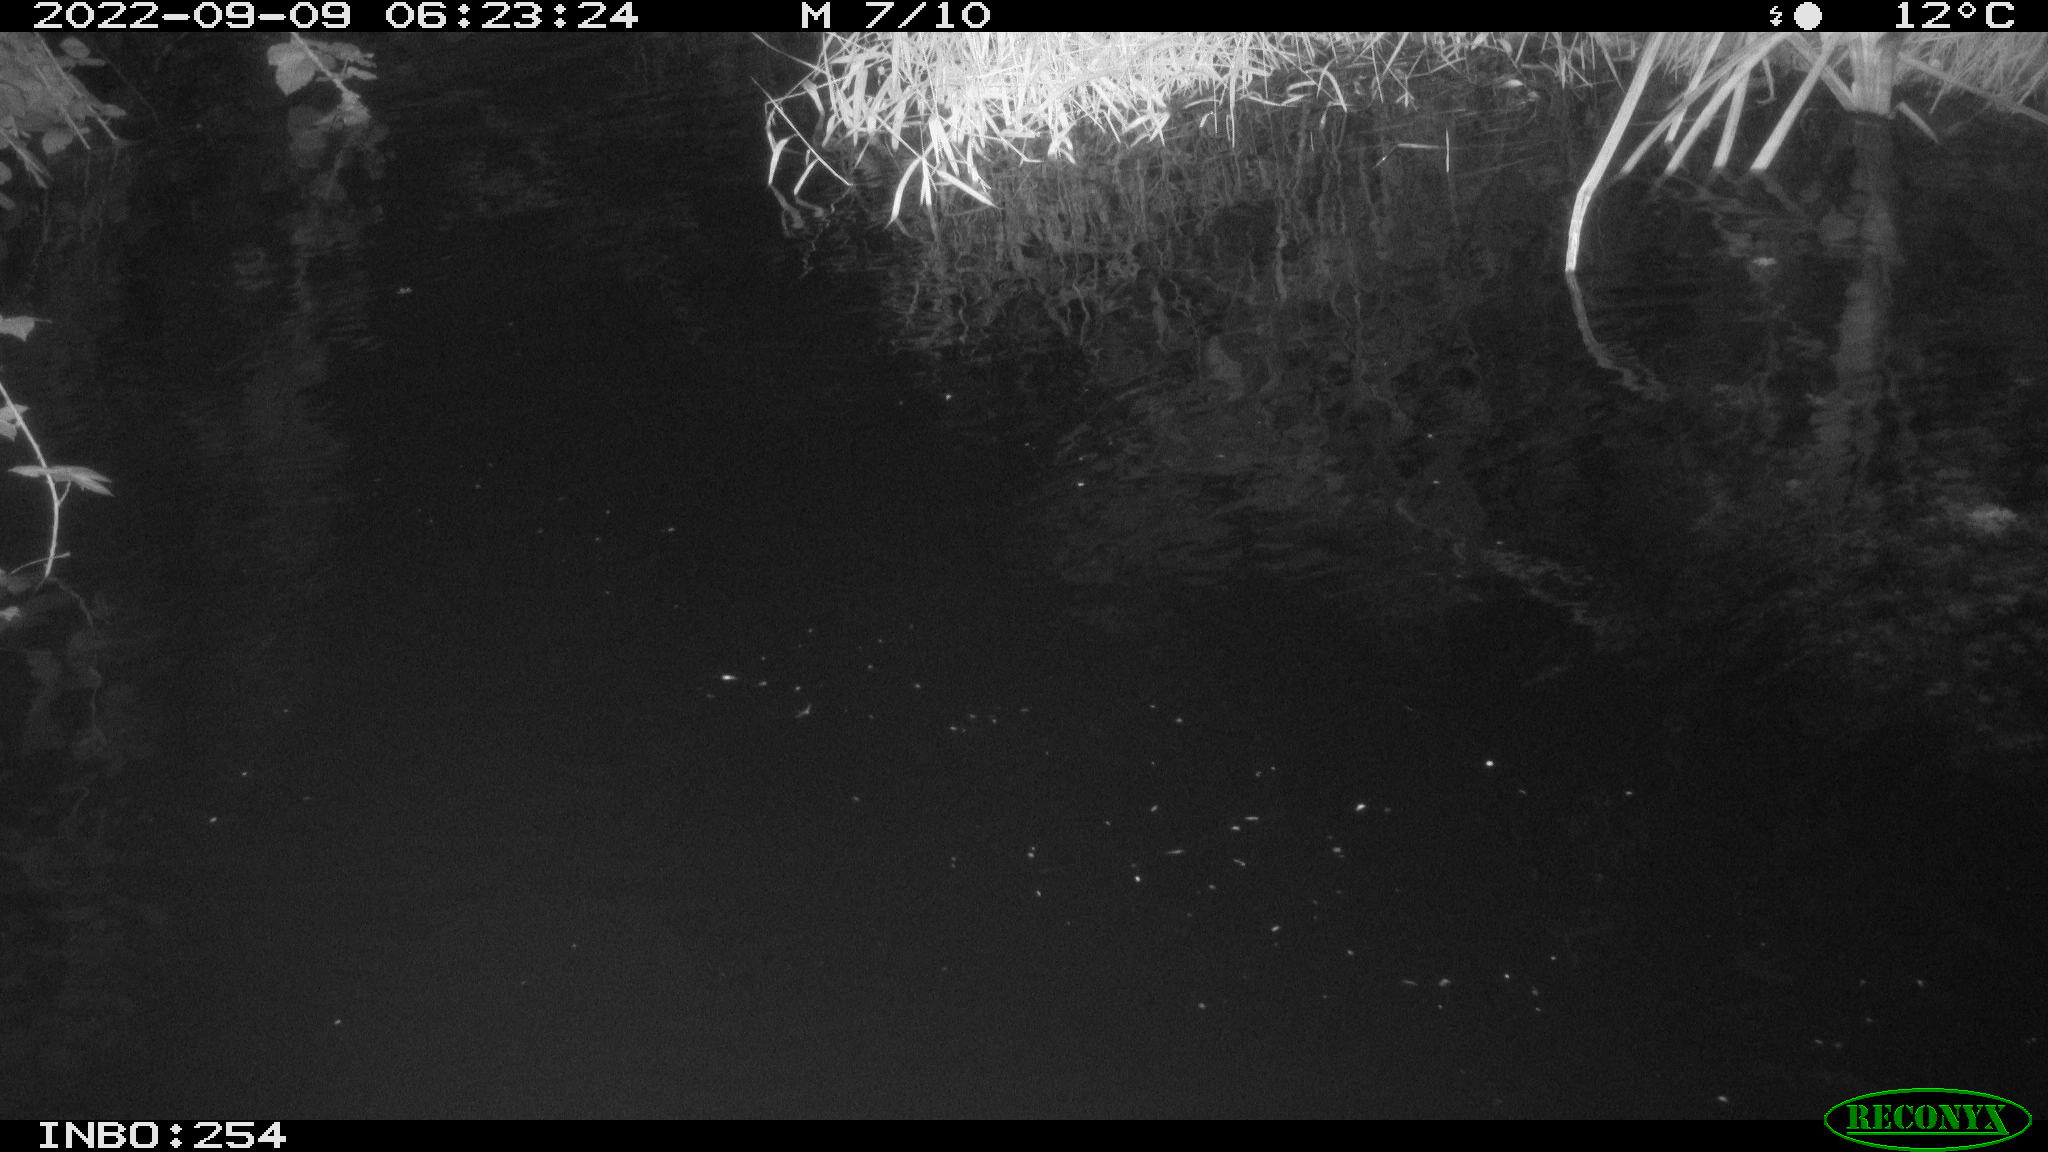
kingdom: Animalia
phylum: Chordata
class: Aves
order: Anseriformes
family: Anatidae
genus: Anas
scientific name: Anas
